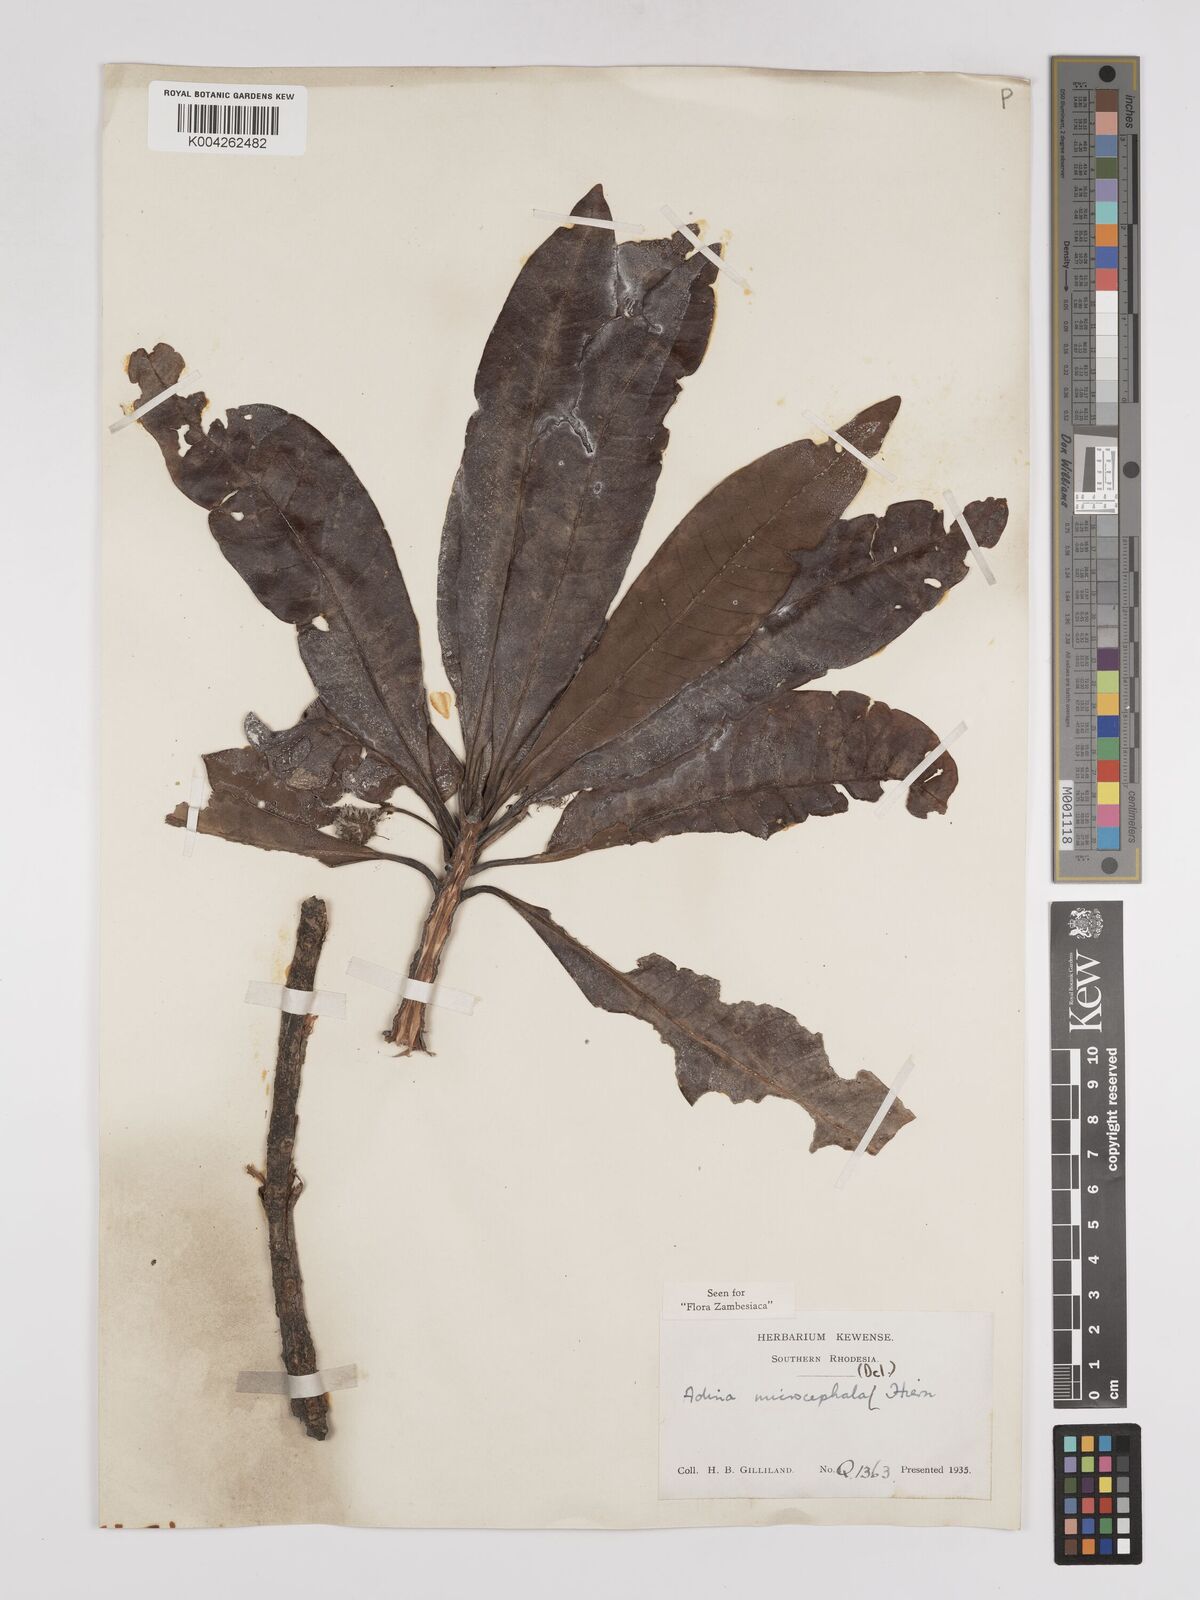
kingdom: Plantae
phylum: Tracheophyta
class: Magnoliopsida
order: Gentianales
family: Rubiaceae
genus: Breonadia
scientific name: Breonadia salicina
